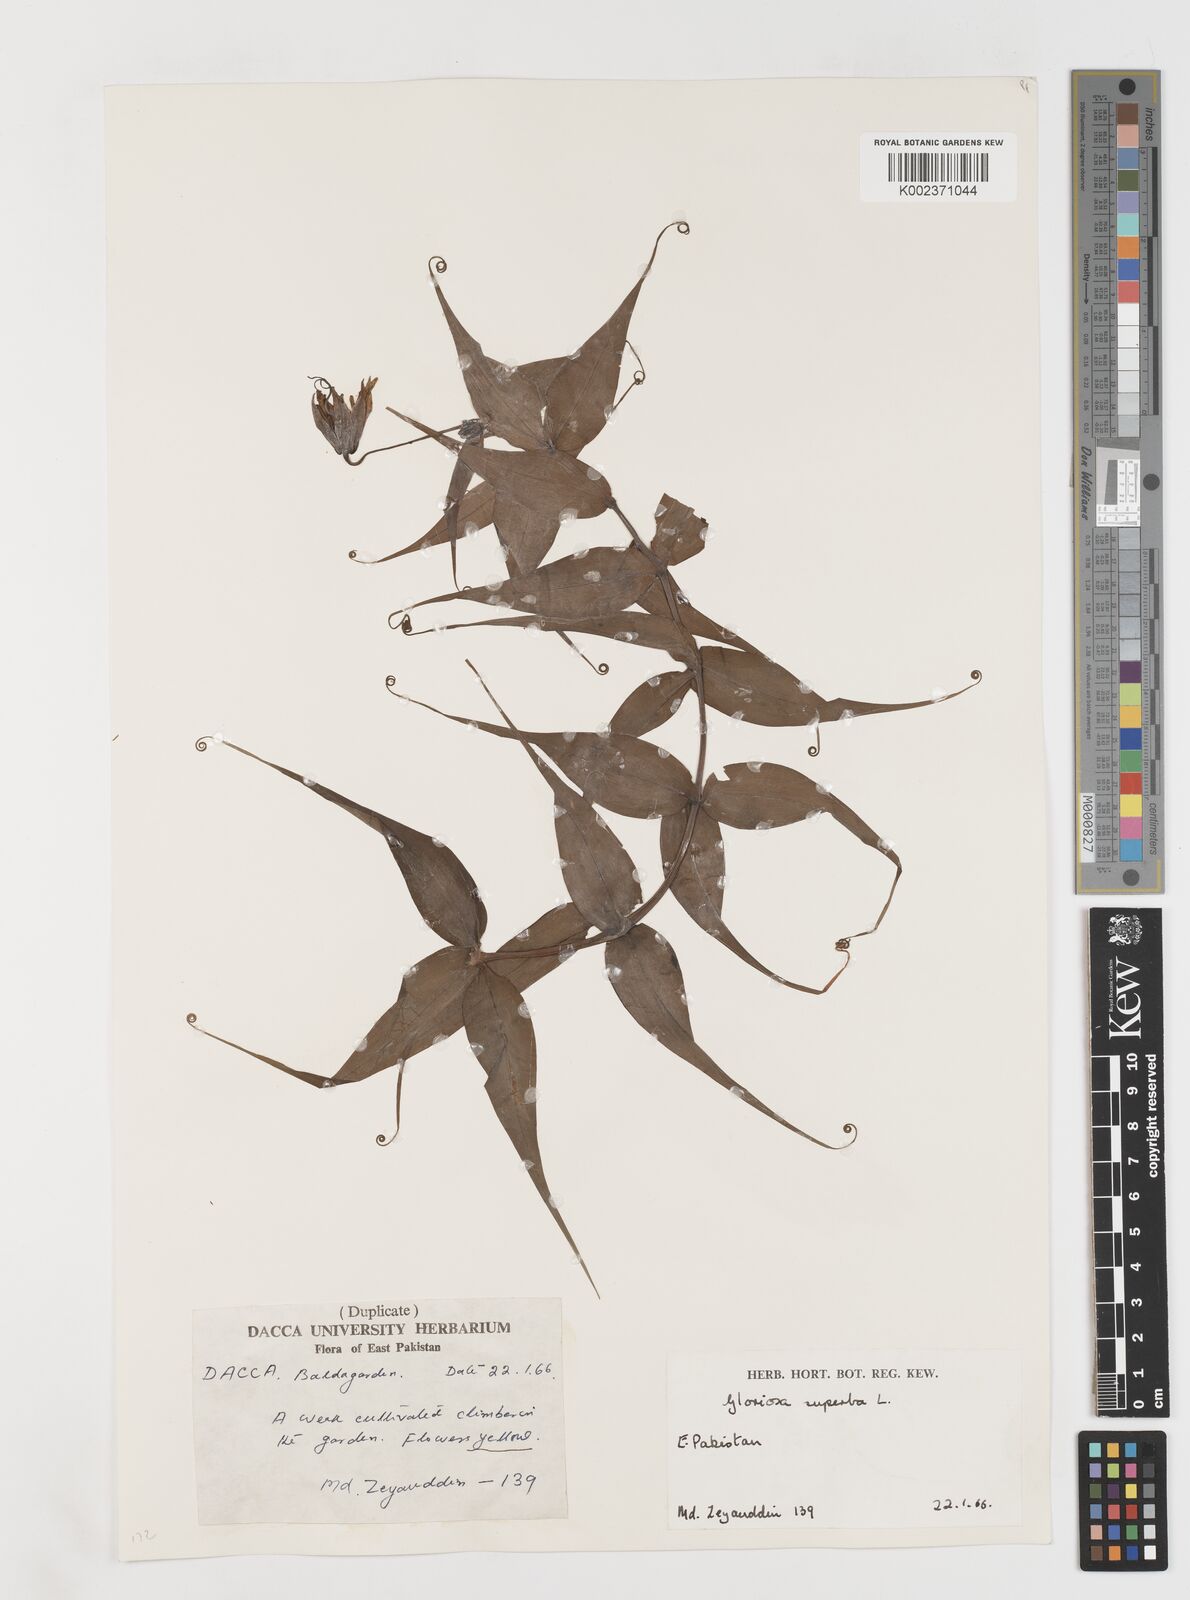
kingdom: Plantae
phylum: Tracheophyta
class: Liliopsida
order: Liliales
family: Colchicaceae
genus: Gloriosa
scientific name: Gloriosa superba
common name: Flame lily
